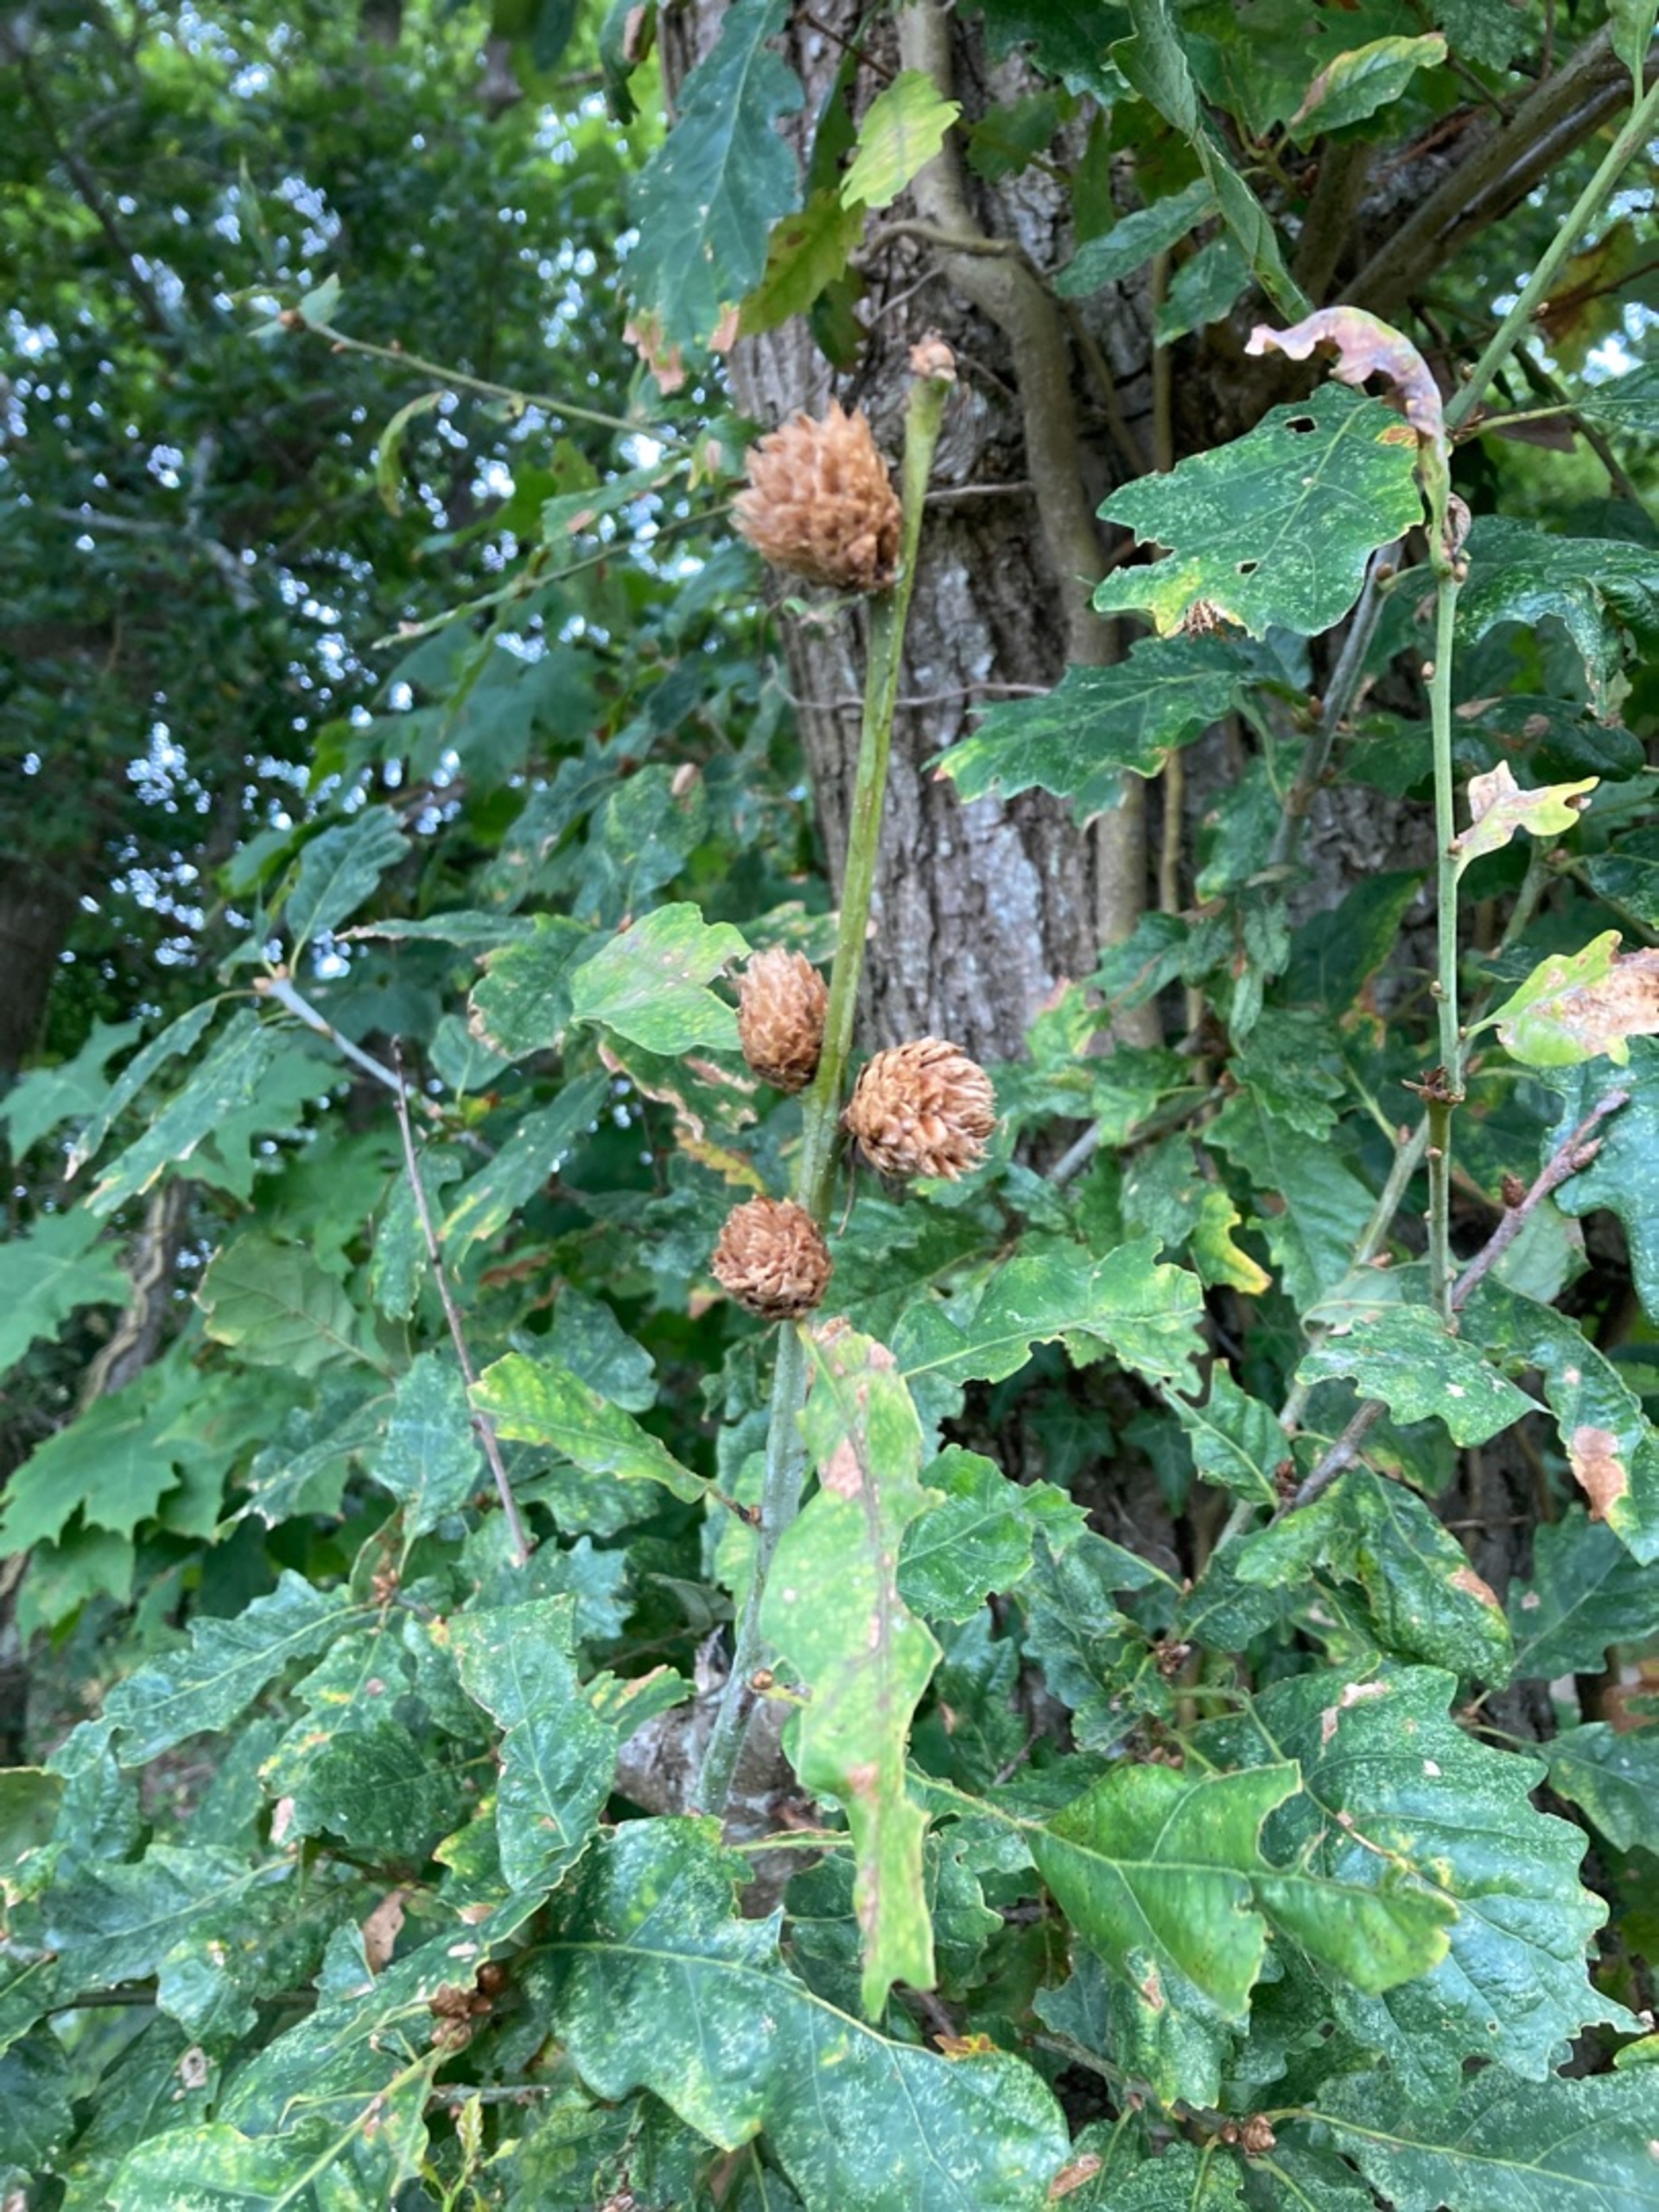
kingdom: Animalia
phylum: Arthropoda
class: Insecta
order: Hymenoptera
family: Cynipidae
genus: Andricus
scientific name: Andricus foecundatrix
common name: Artiskokgalhveps
